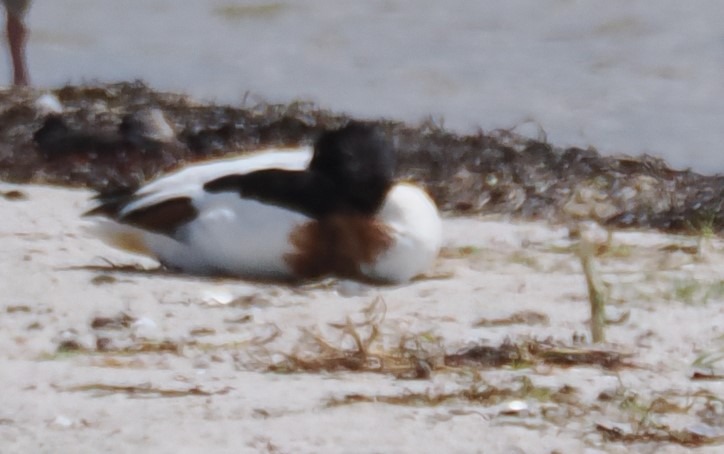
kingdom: Animalia
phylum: Chordata
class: Aves
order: Anseriformes
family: Anatidae
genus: Tadorna
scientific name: Tadorna tadorna
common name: Gravand
